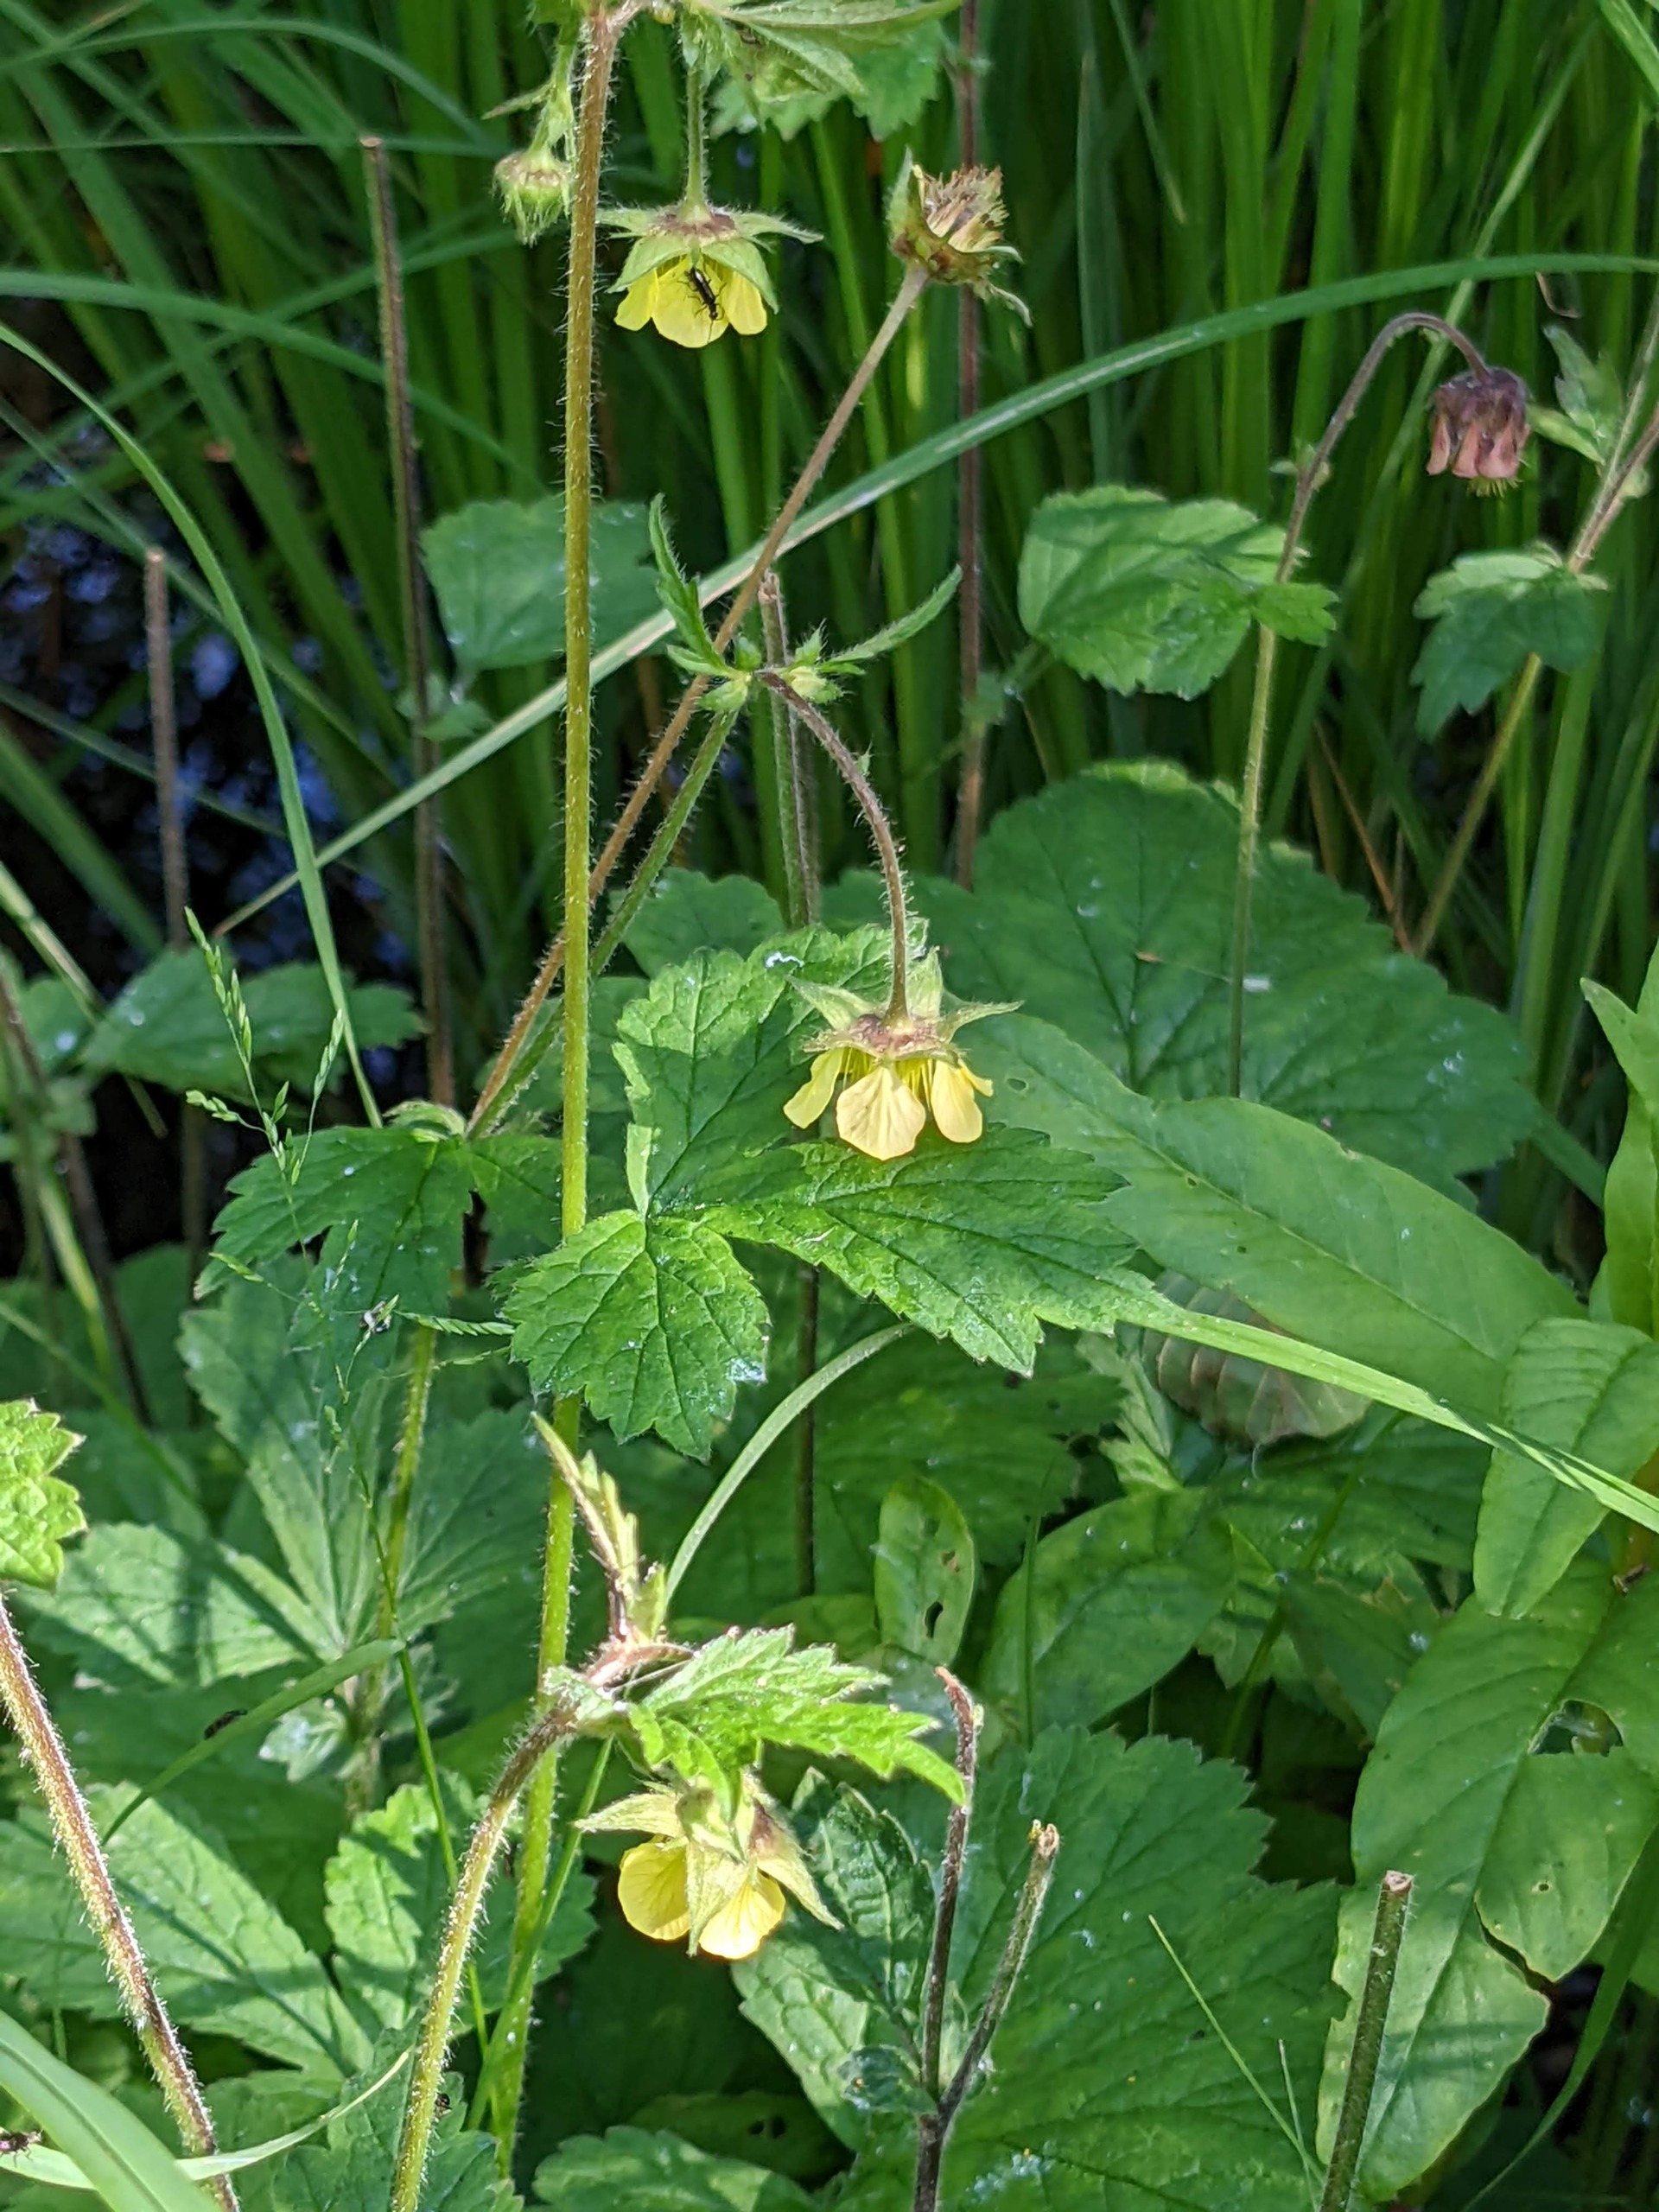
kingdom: Plantae
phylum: Tracheophyta
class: Magnoliopsida
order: Rosales
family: Rosaceae
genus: Geum
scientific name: Geum
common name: Høj nellikerod
